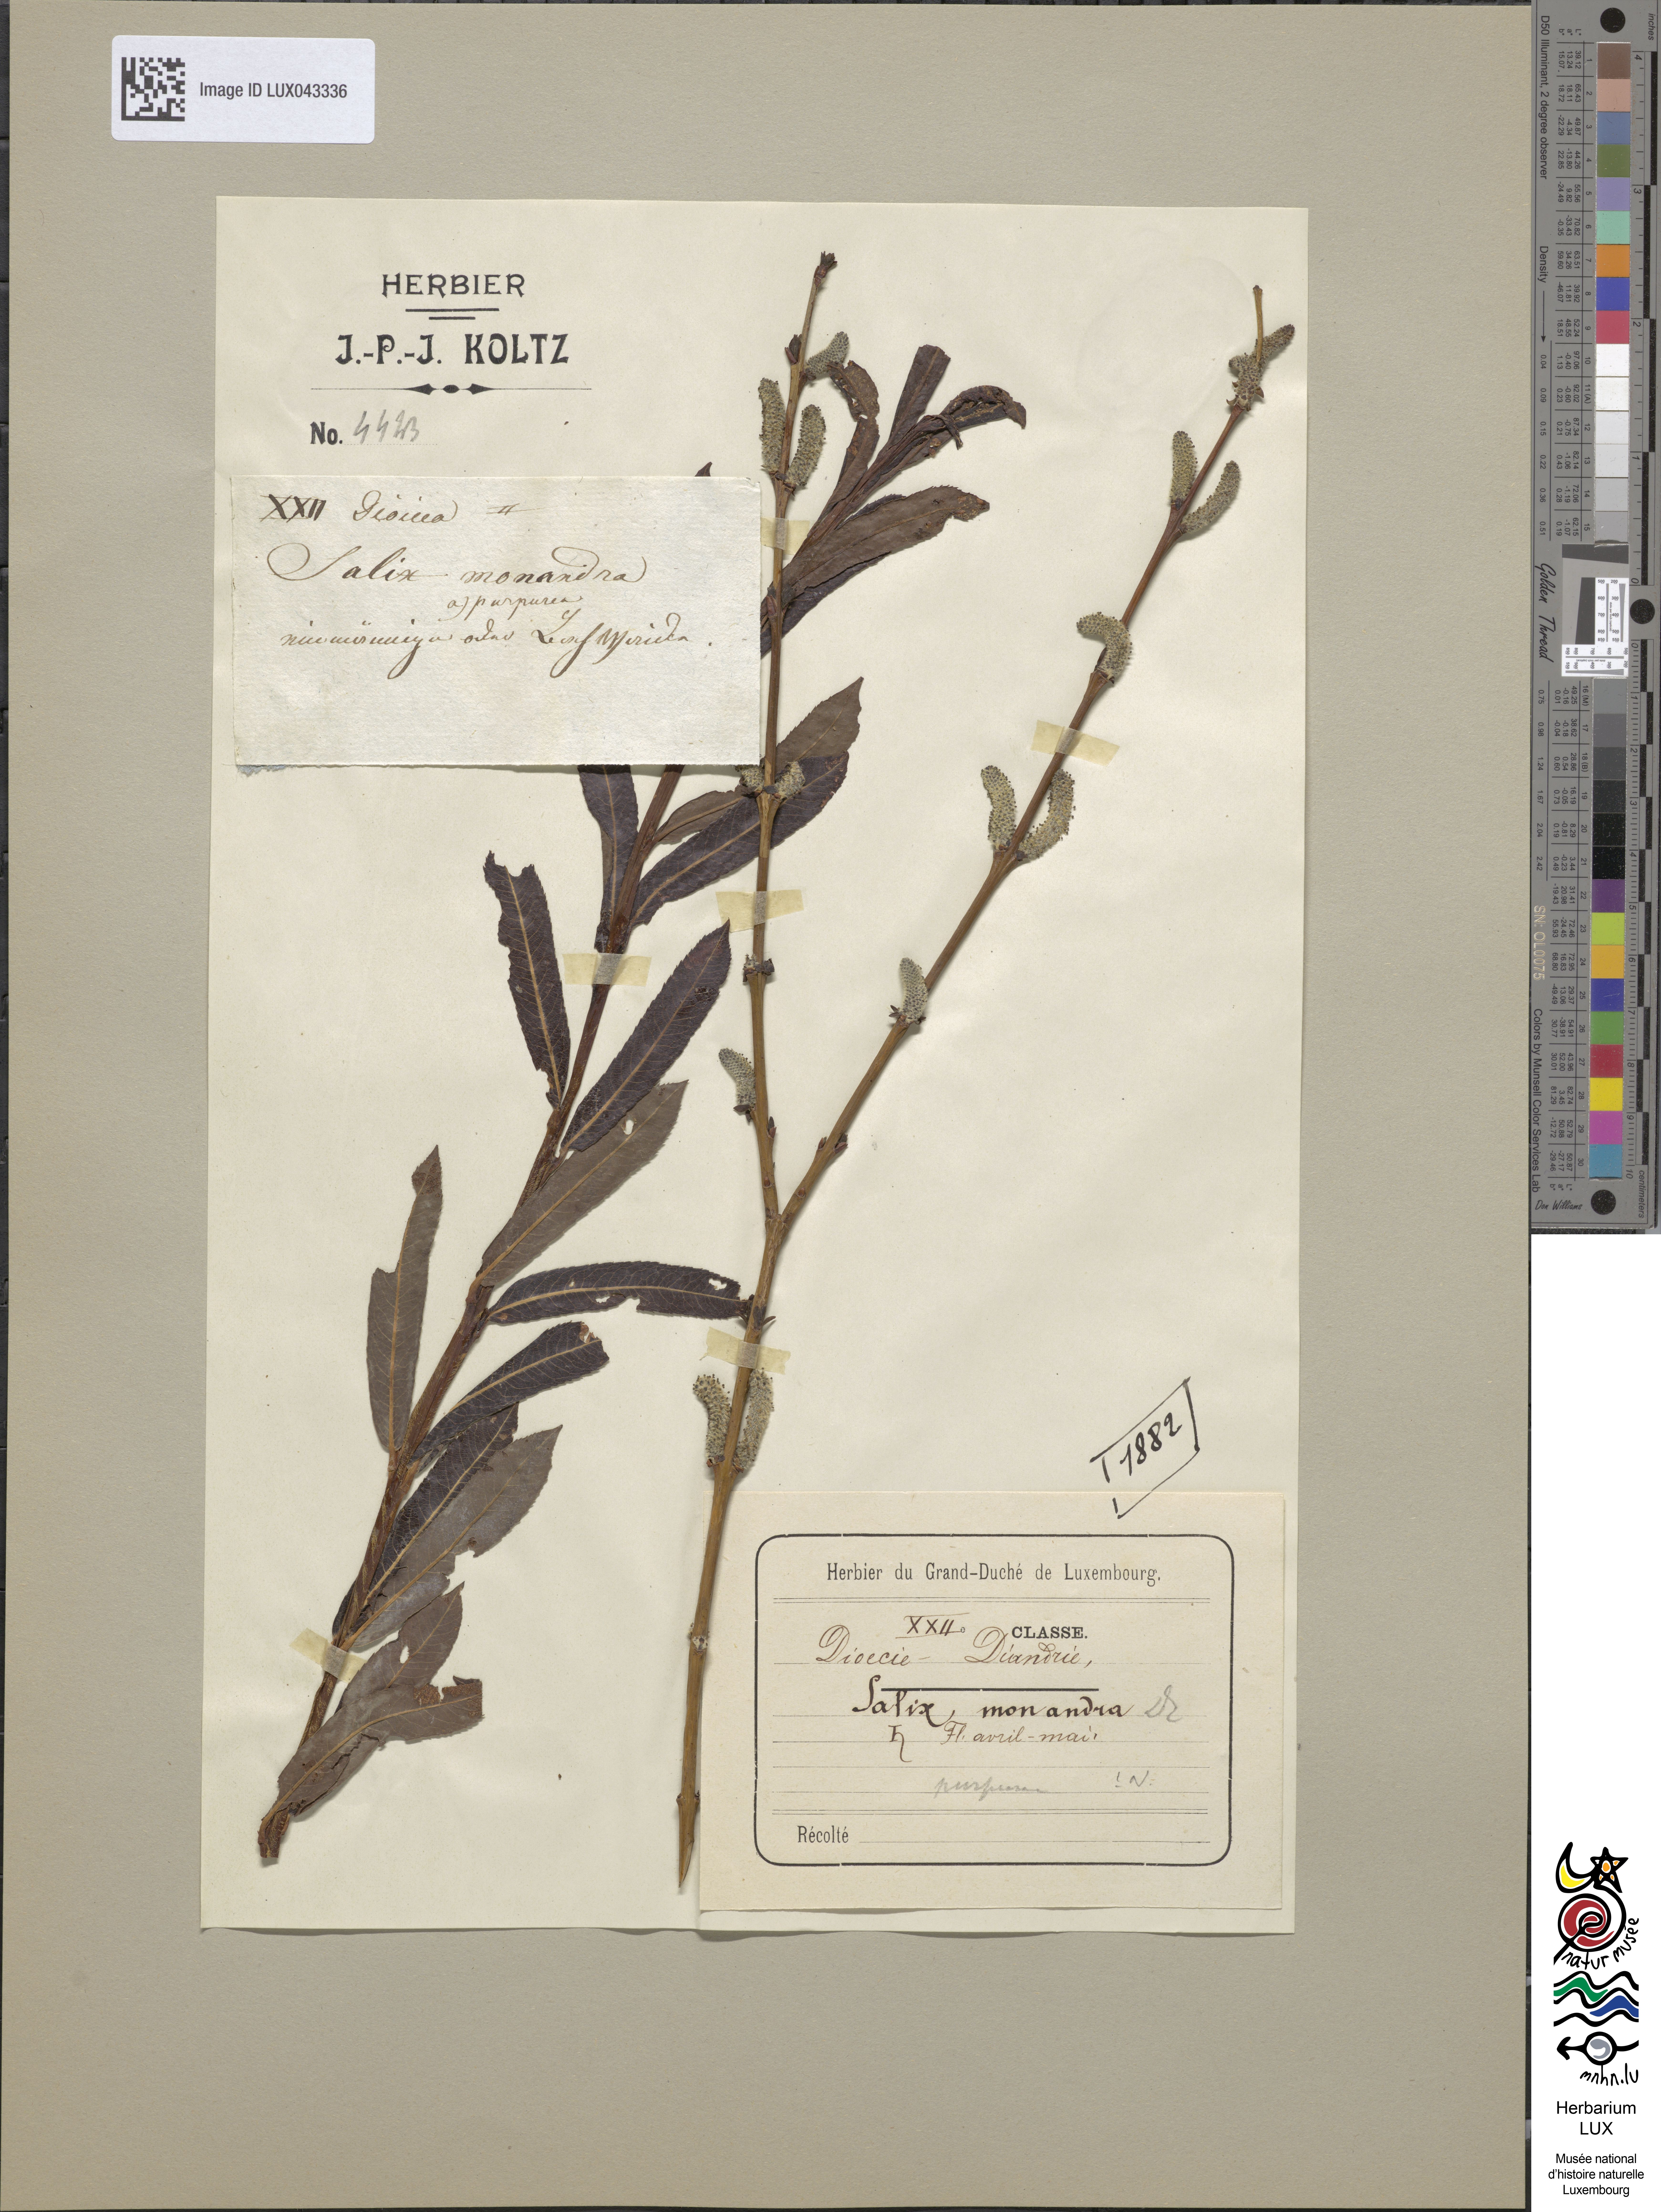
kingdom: Plantae
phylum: Tracheophyta
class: Magnoliopsida
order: Malpighiales
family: Salicaceae
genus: Salix
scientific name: Salix purpurea
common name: Purple willow
